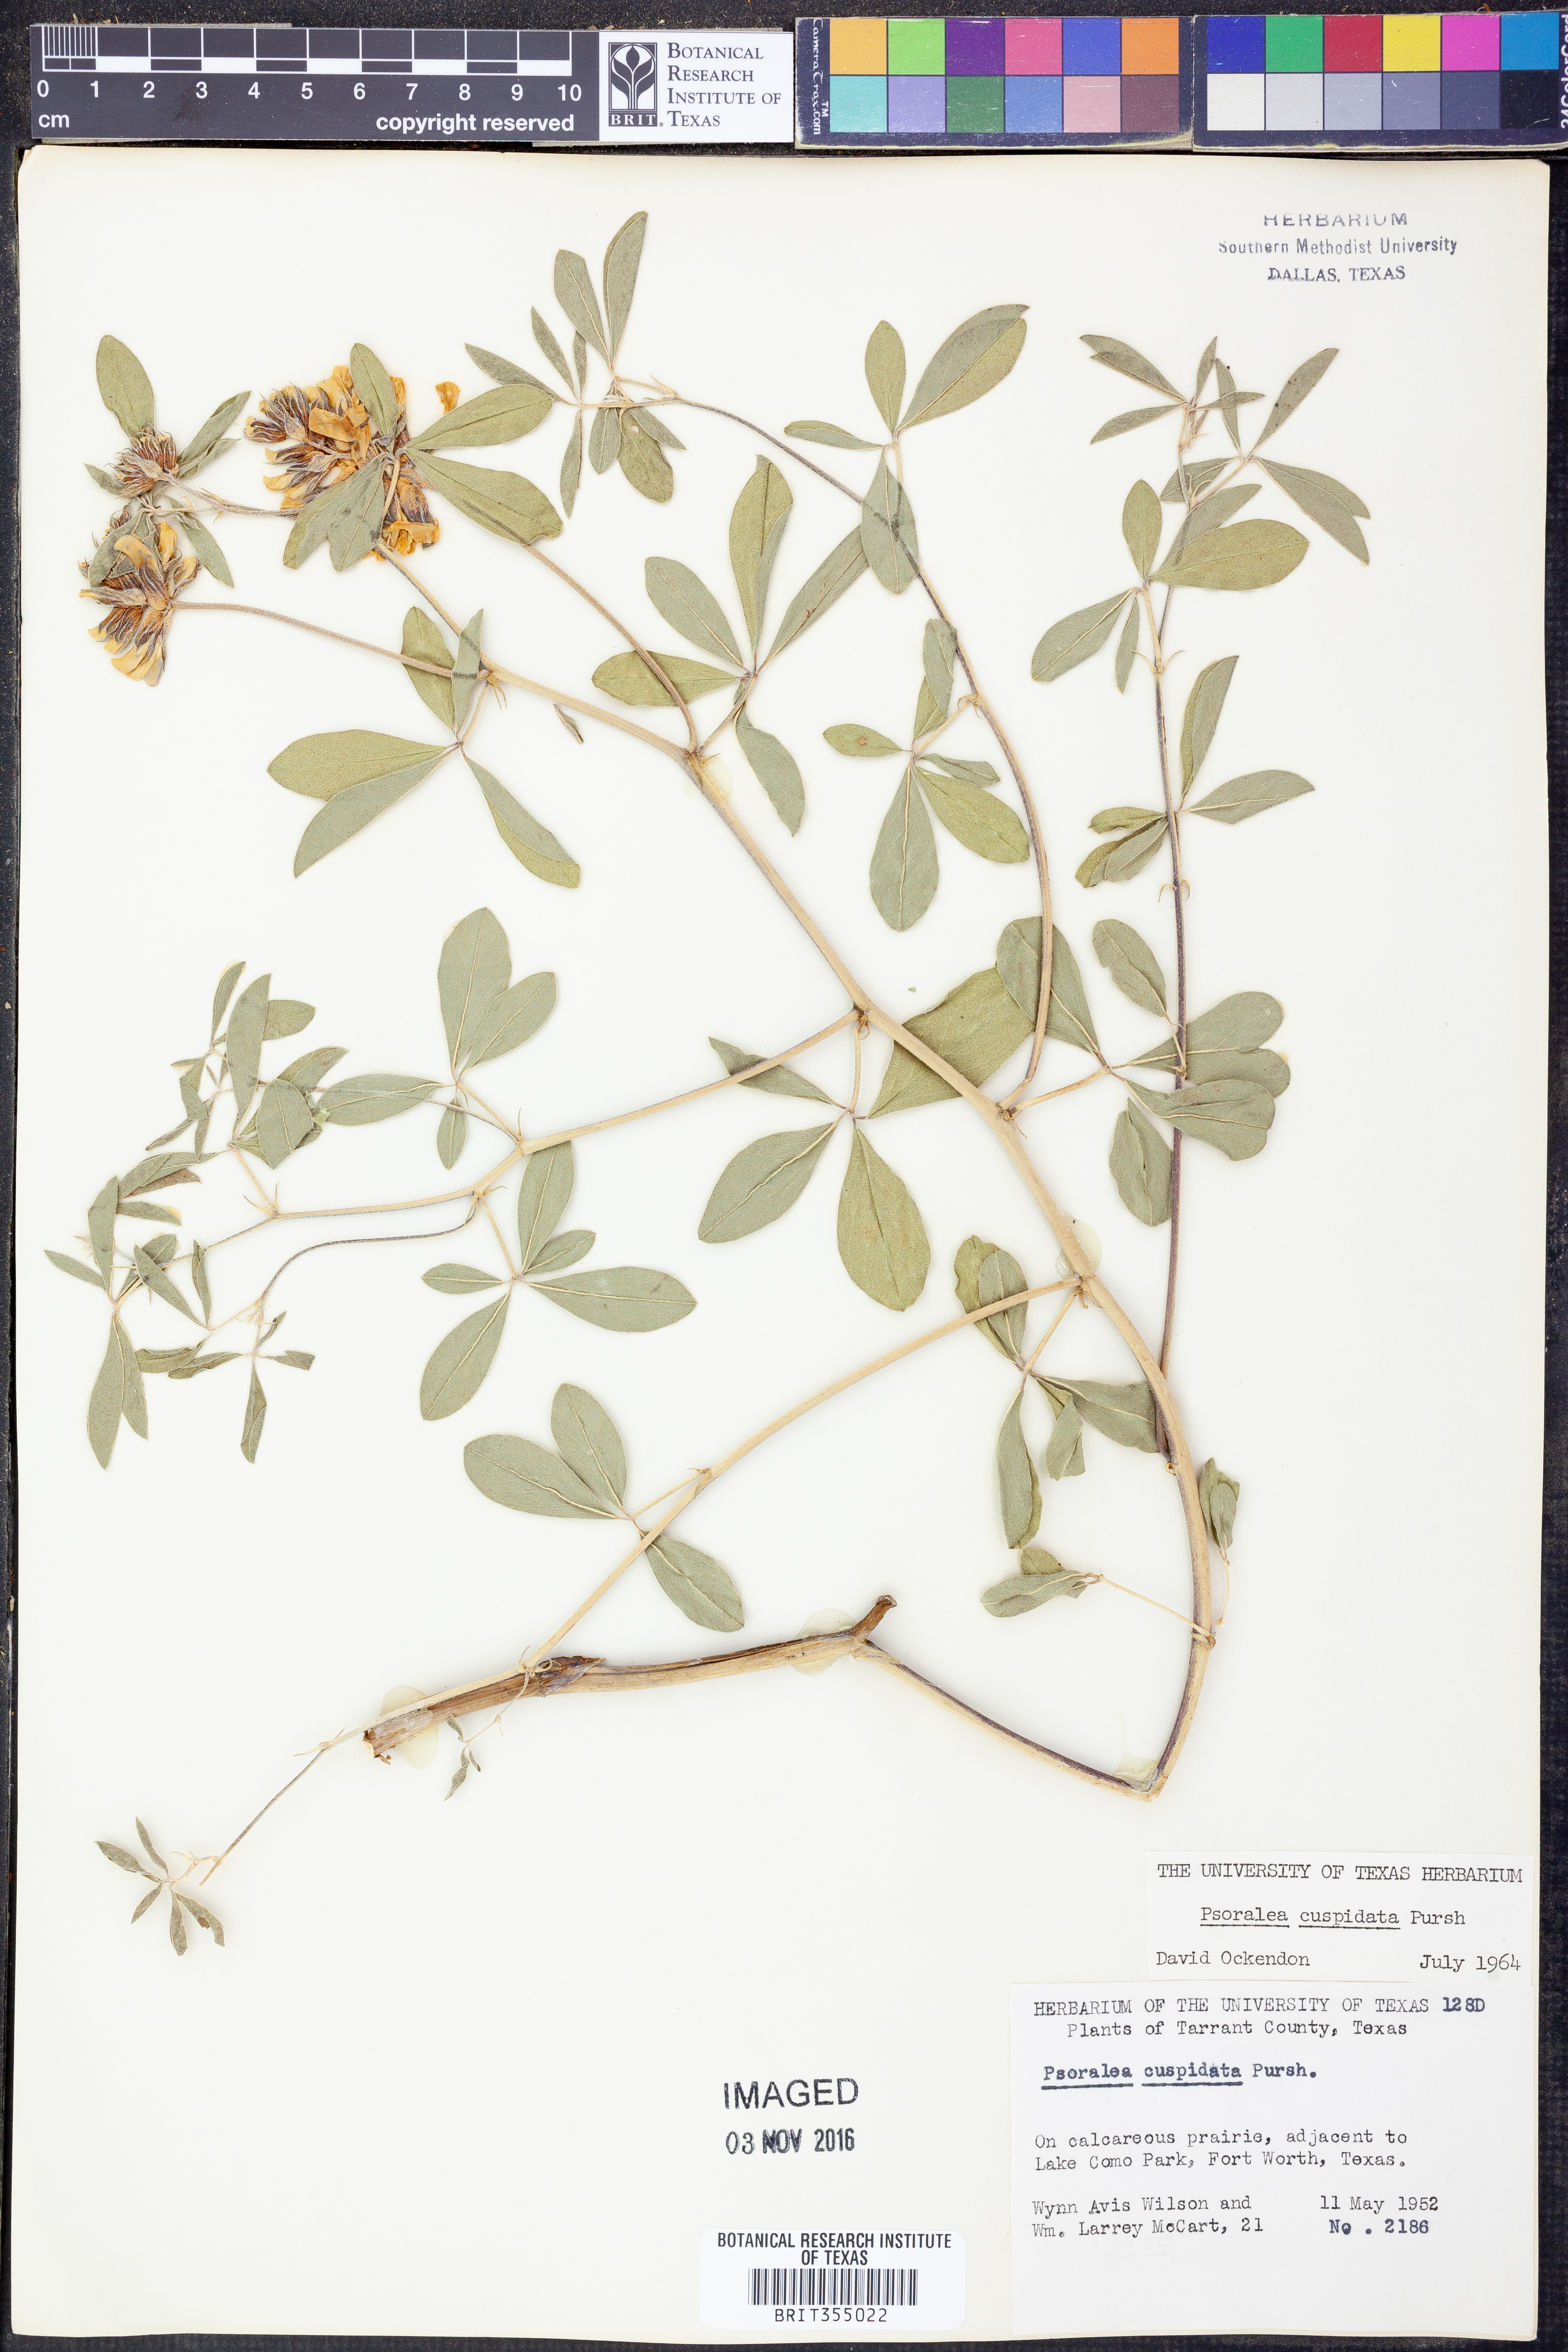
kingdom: Plantae
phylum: Tracheophyta
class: Magnoliopsida
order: Fabales
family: Fabaceae
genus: Pediomelum
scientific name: Pediomelum cuspidatum
